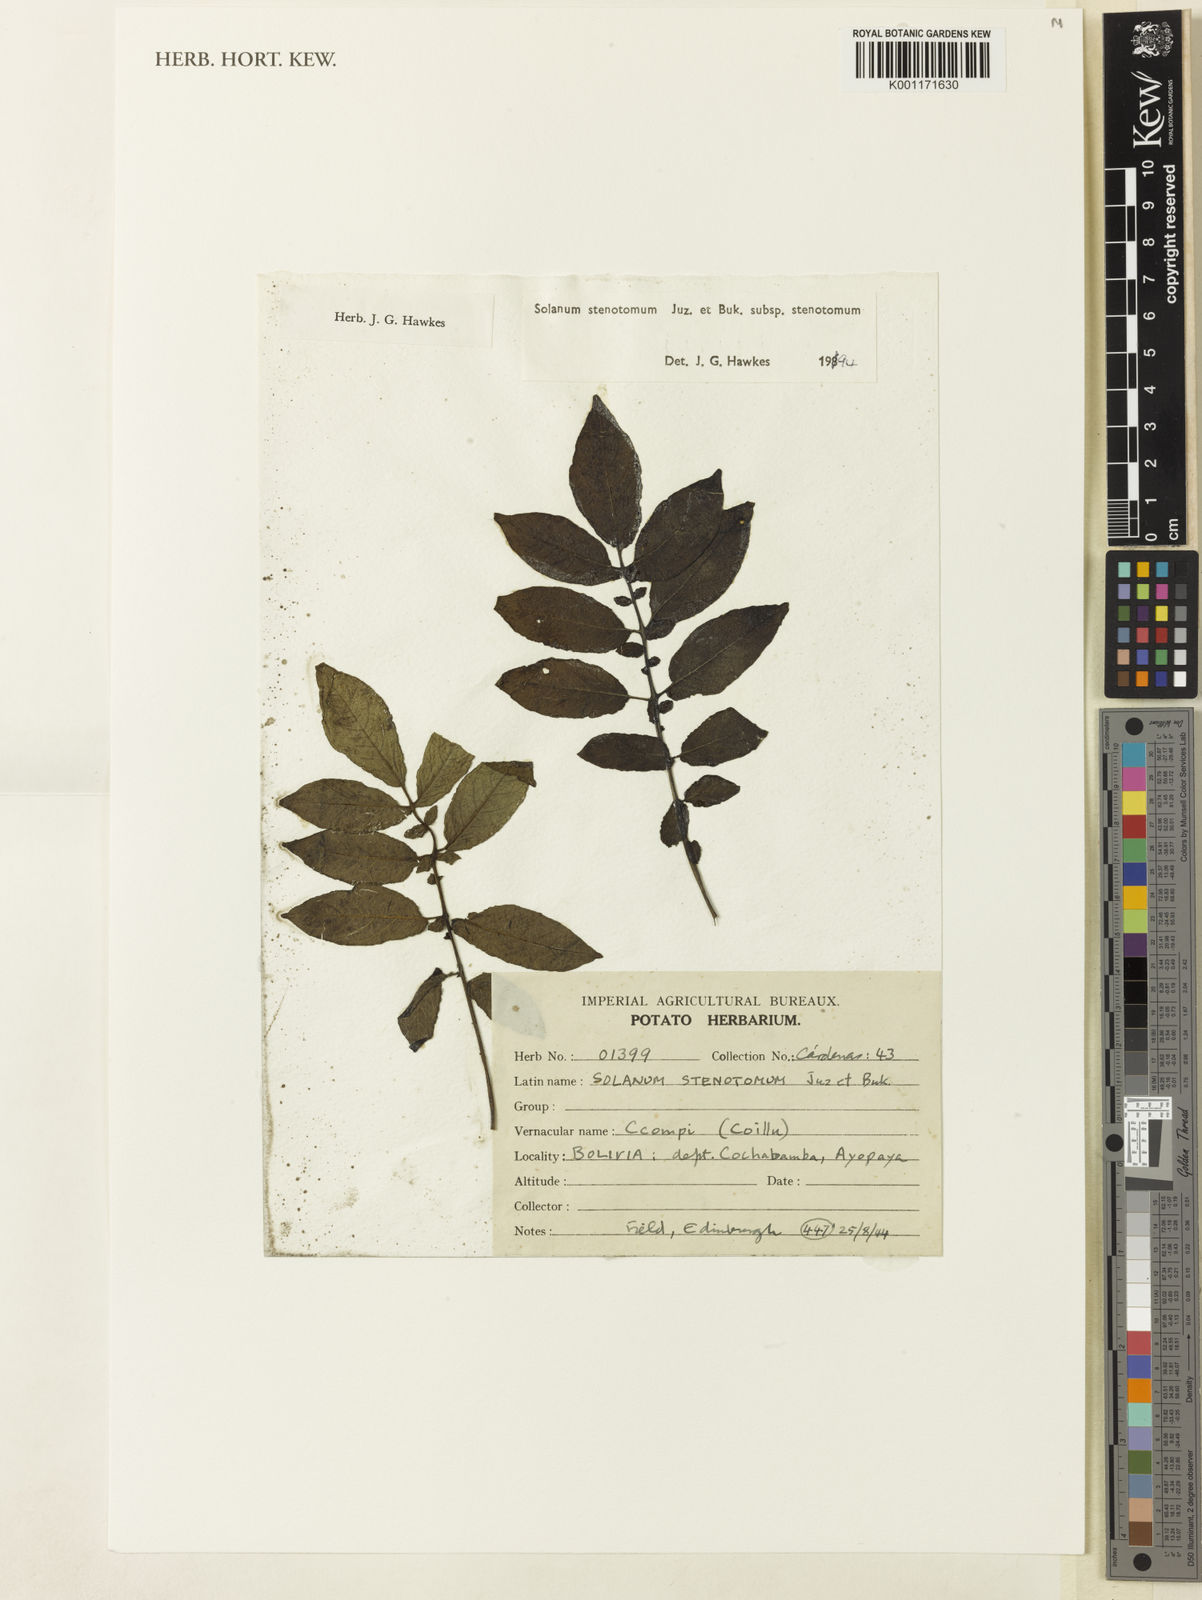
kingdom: Plantae
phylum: Tracheophyta
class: Magnoliopsida
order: Solanales
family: Solanaceae
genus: Solanum
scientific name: Solanum tuberosum
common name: Potato
